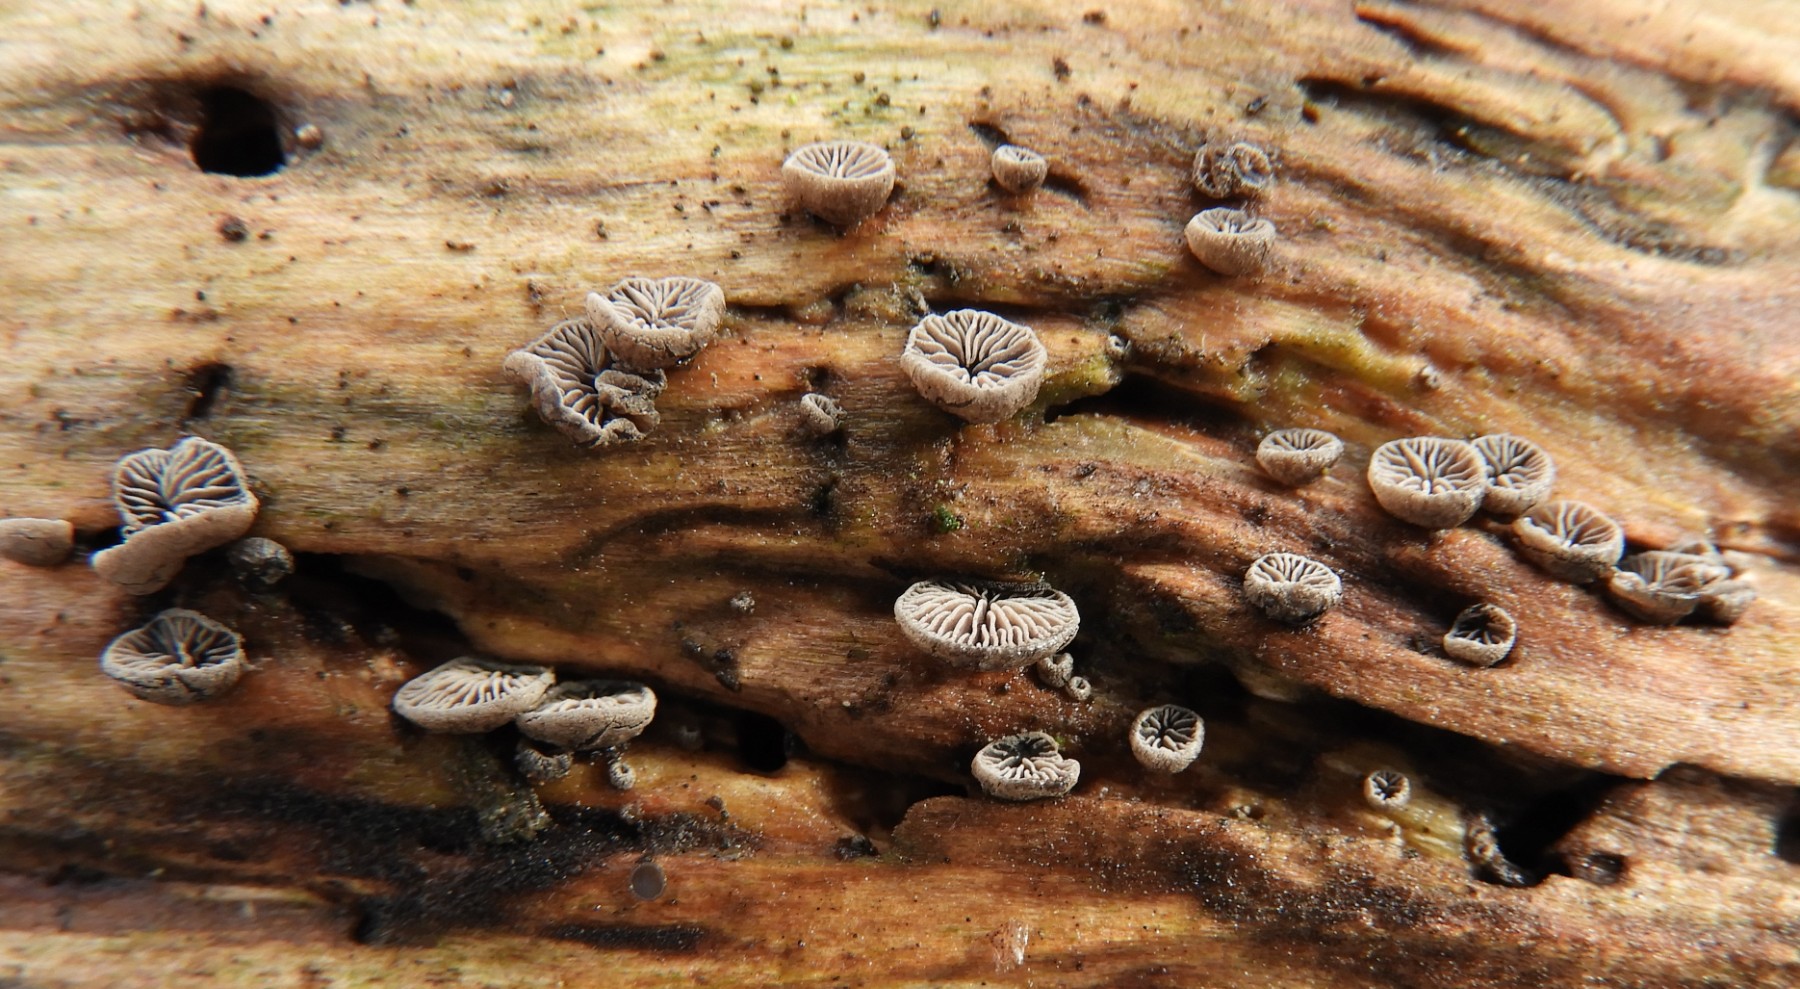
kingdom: Fungi
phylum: Basidiomycota
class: Agaricomycetes
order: Agaricales
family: Pleurotaceae
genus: Resupinatus
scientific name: Resupinatus applicatus
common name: lysfiltet barkhat
